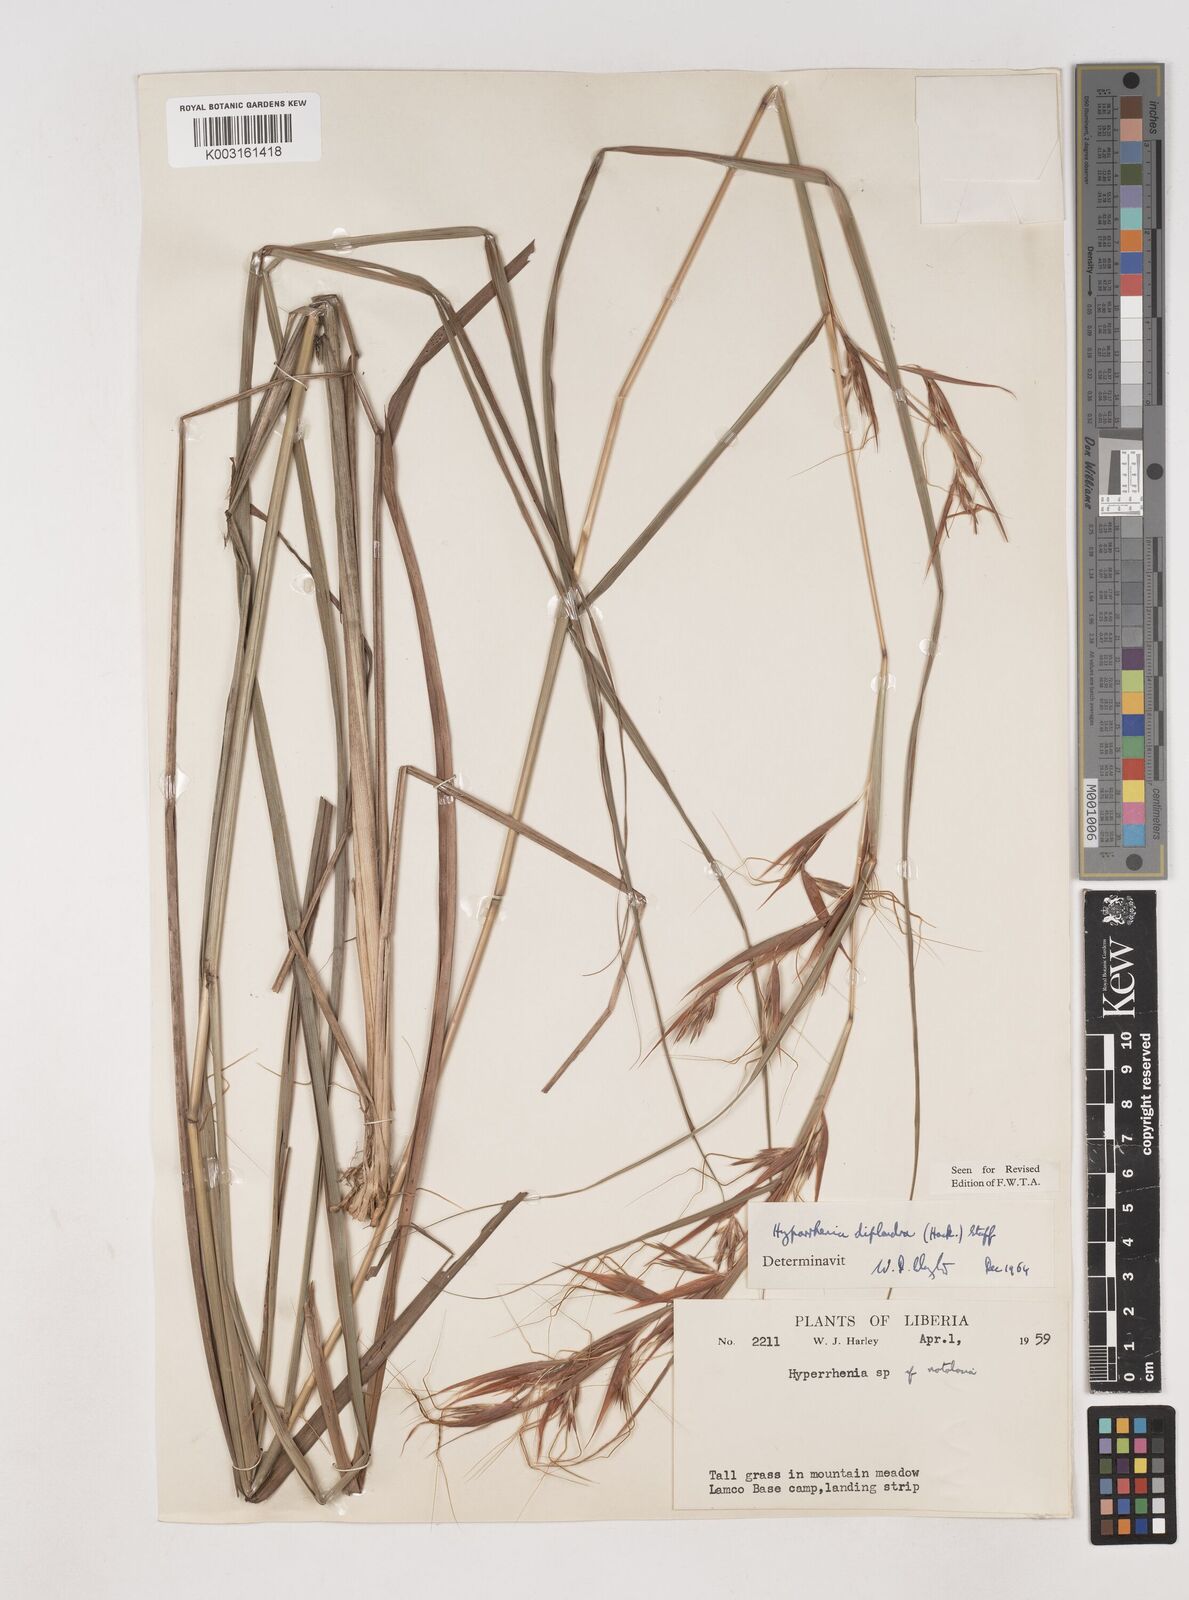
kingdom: Plantae
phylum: Tracheophyta
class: Liliopsida
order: Poales
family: Poaceae
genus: Hyparrhenia
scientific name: Hyparrhenia diplandra
